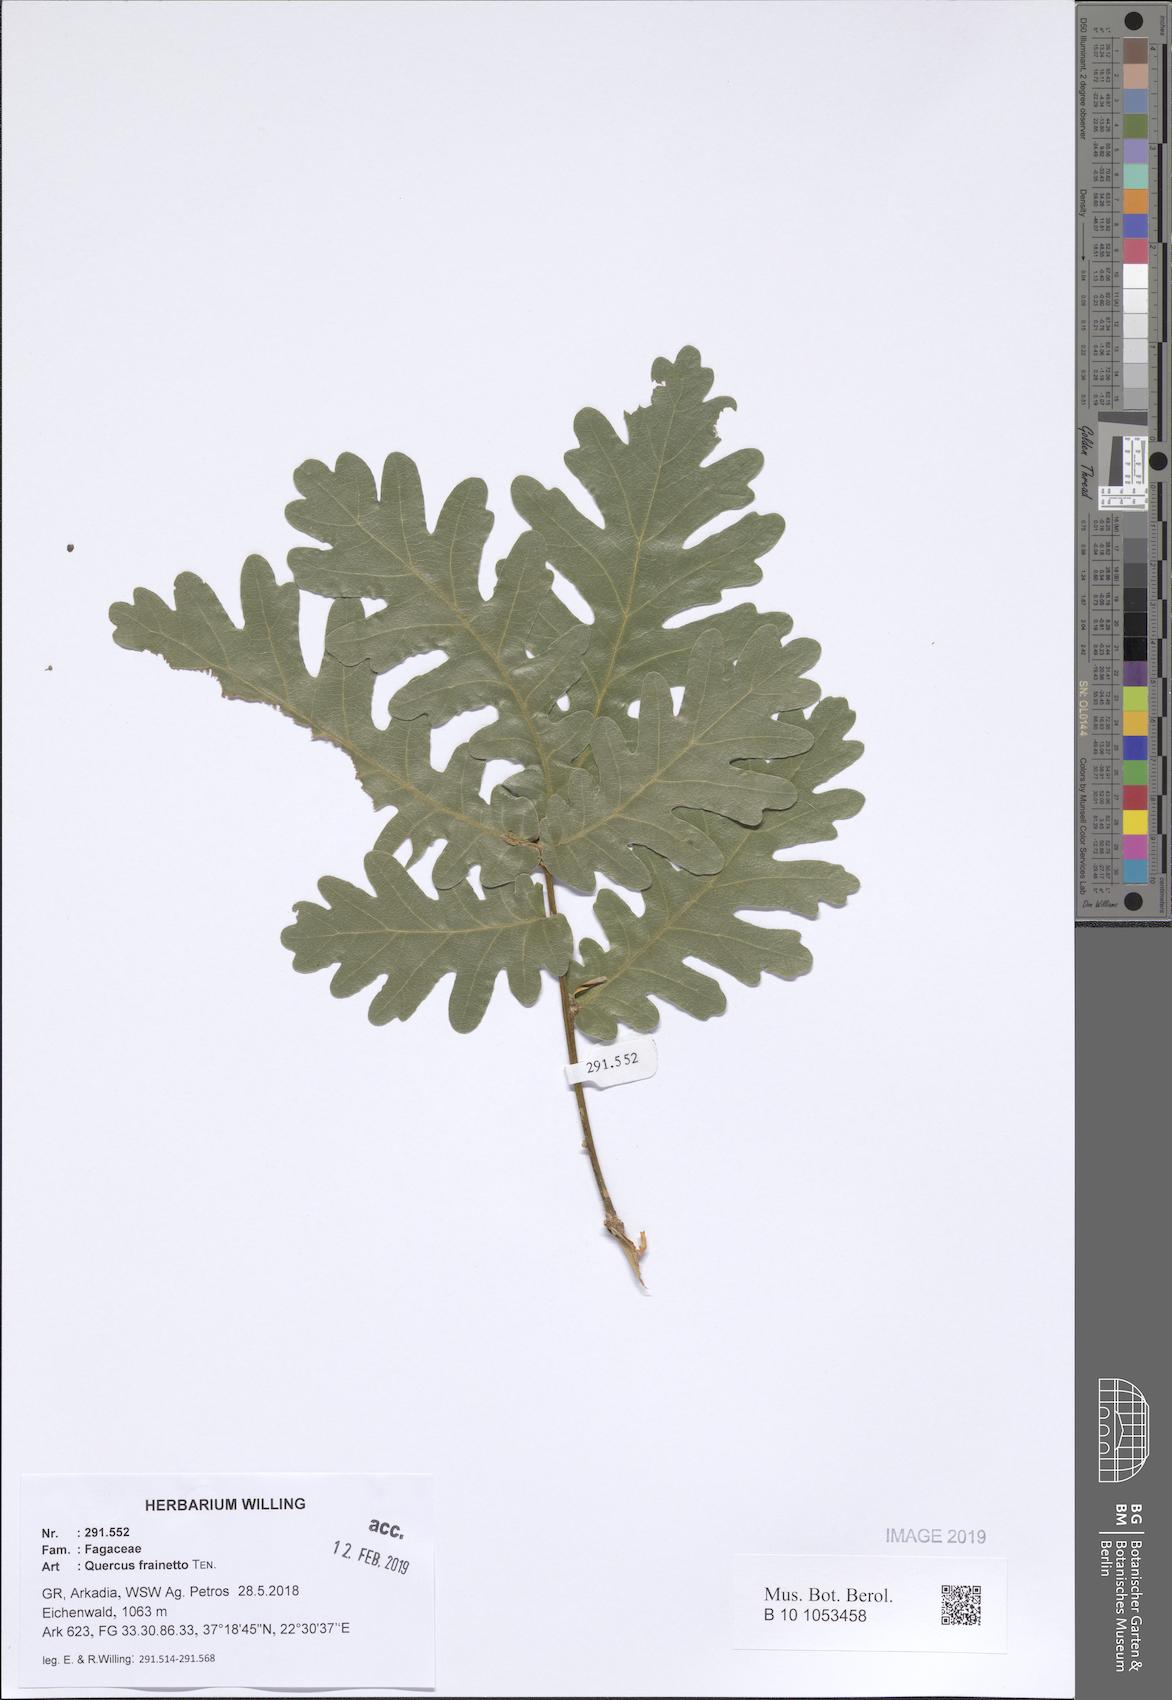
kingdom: Plantae
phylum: Tracheophyta
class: Magnoliopsida
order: Fagales
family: Fagaceae
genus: Quercus
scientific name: Quercus conferta
